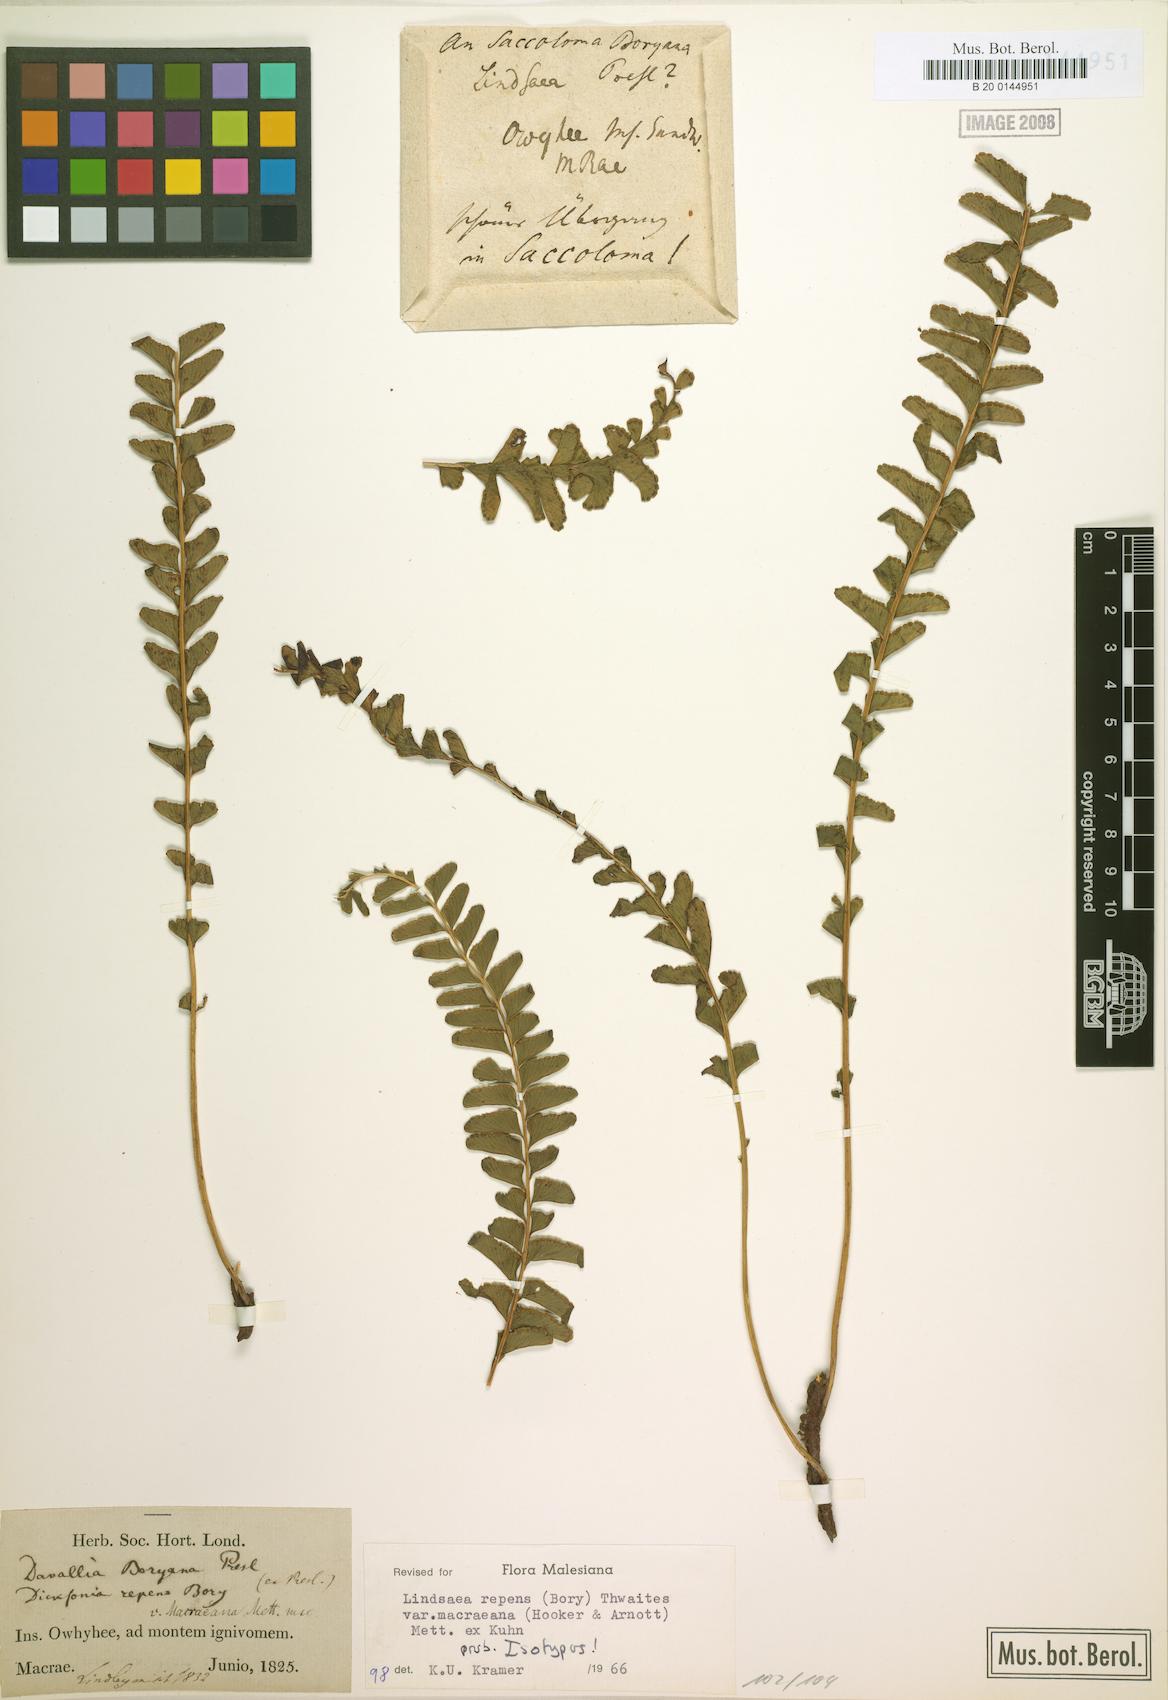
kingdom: Plantae
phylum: Tracheophyta
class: Polypodiopsida
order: Polypodiales
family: Lindsaeaceae
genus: Lindsaea
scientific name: Lindsaea macraeana
